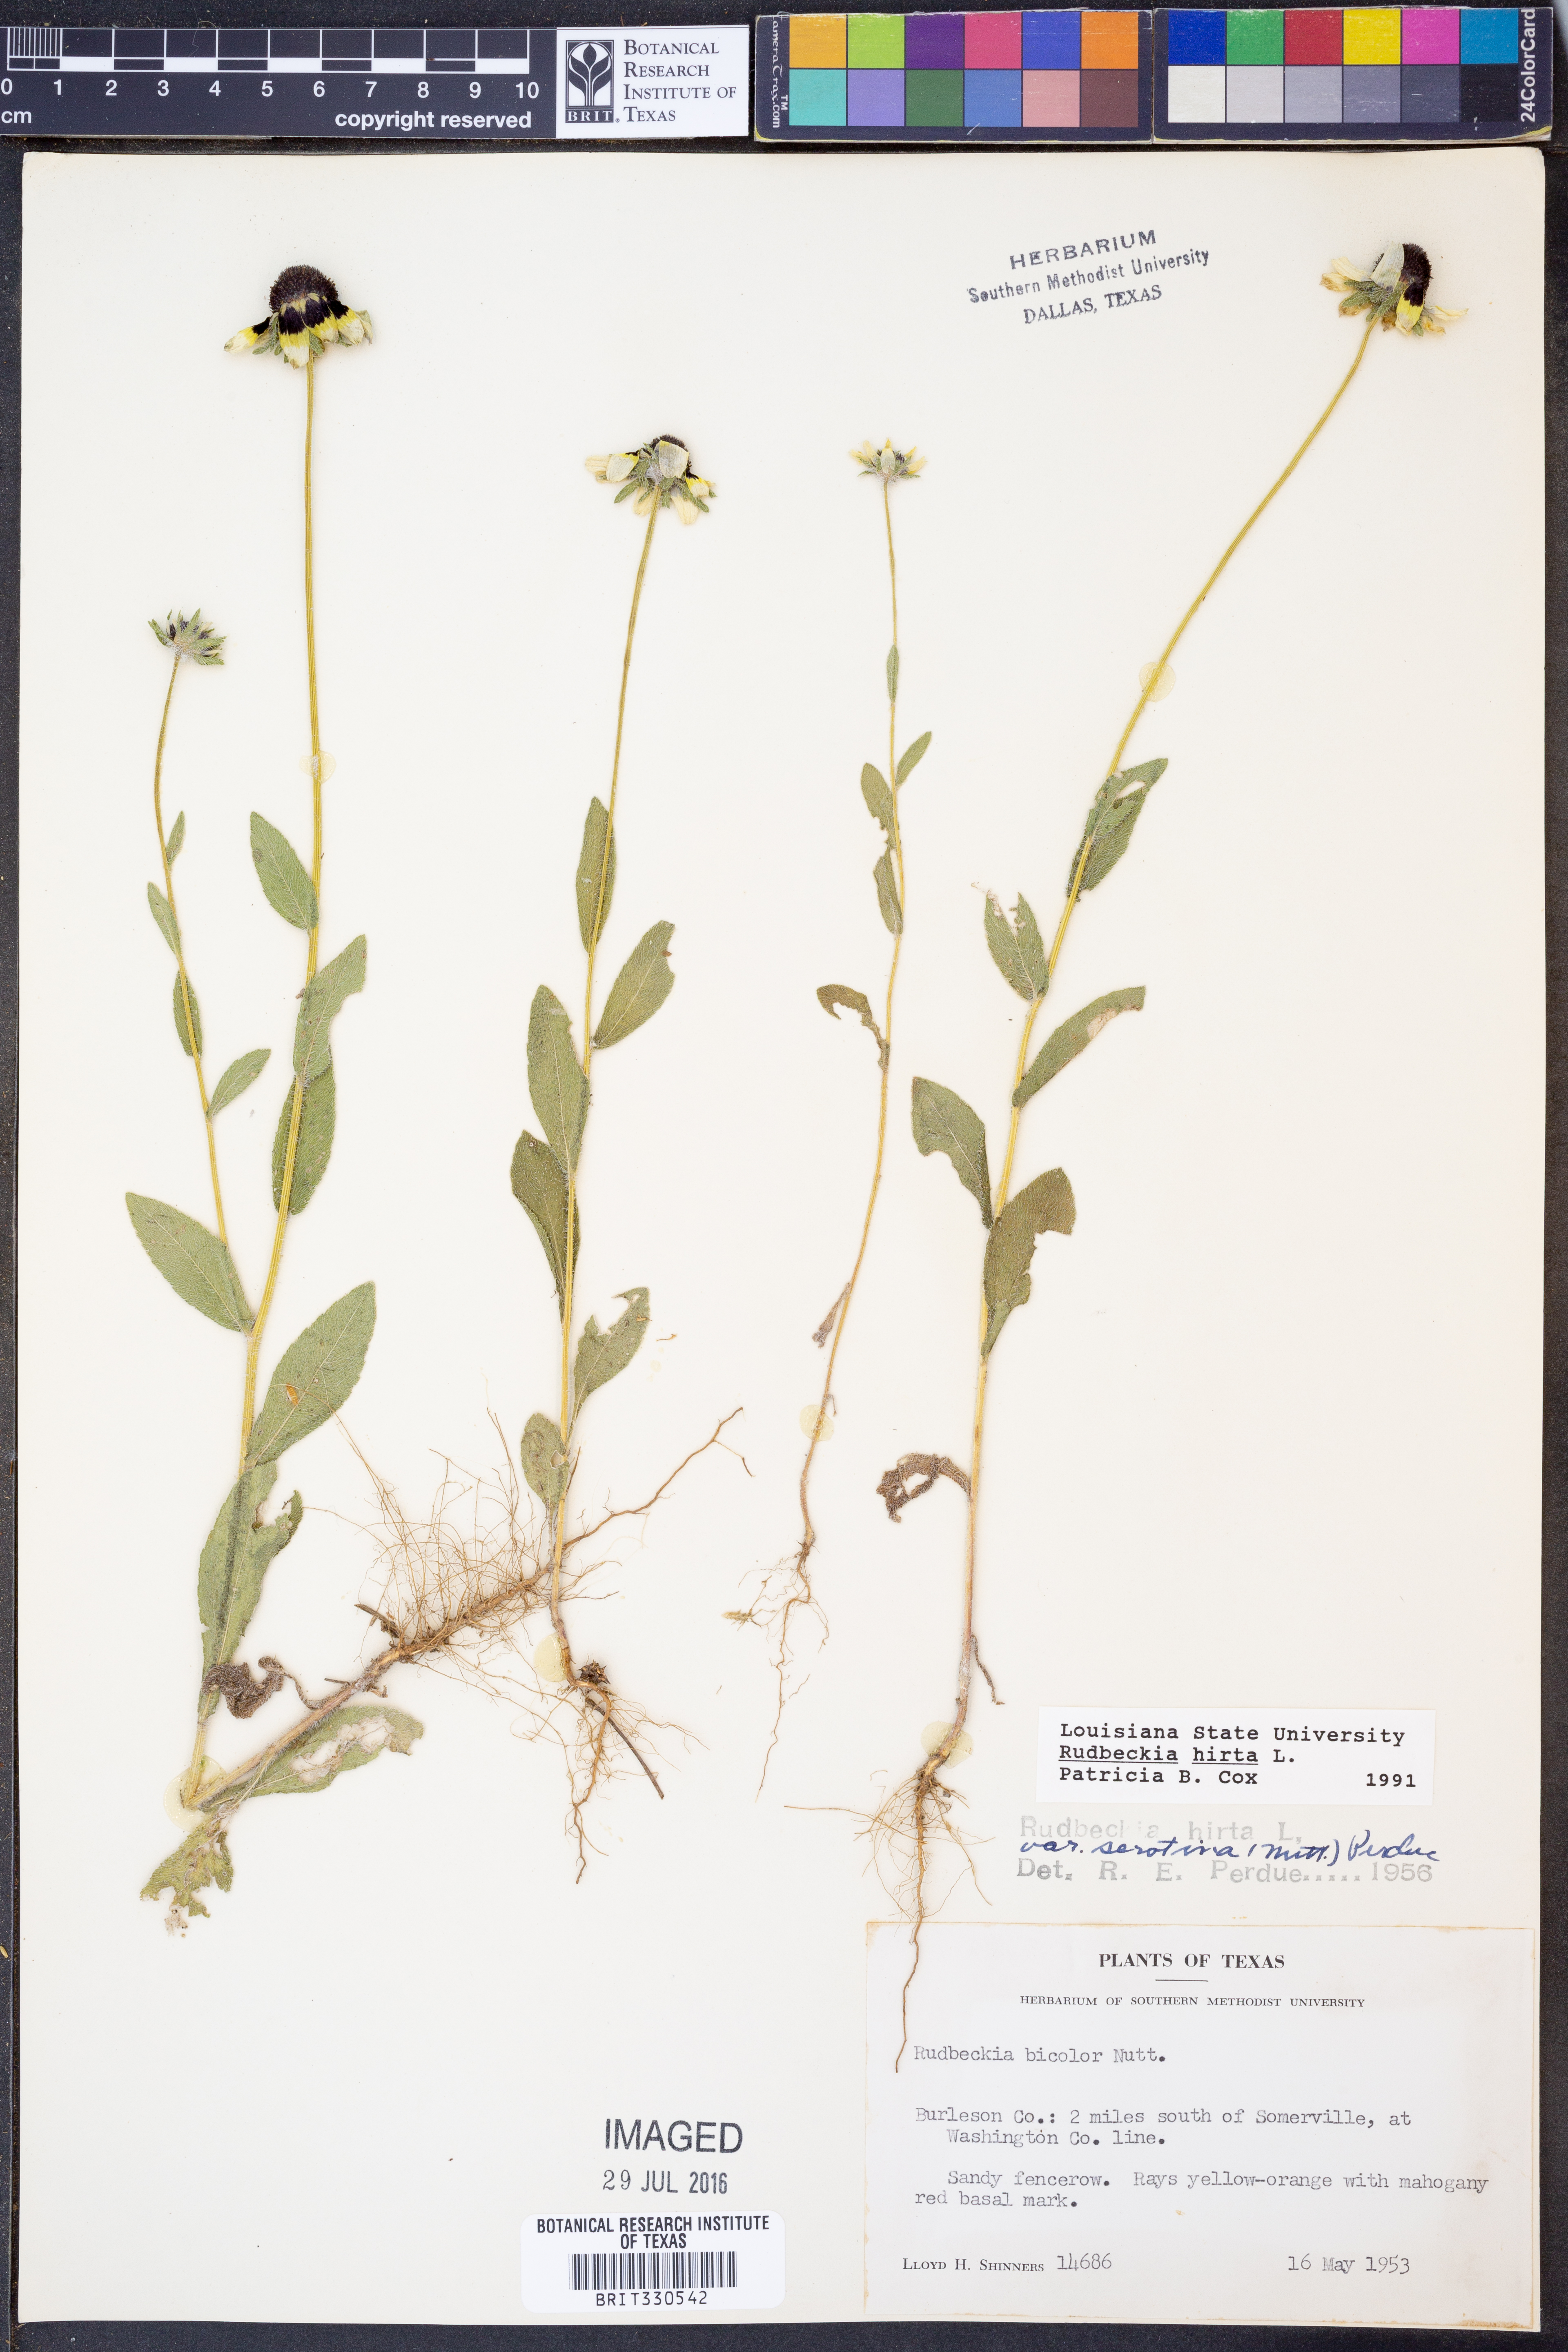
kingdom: Plantae
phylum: Tracheophyta
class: Magnoliopsida
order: Asterales
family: Asteraceae
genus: Rudbeckia
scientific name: Rudbeckia hirta
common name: Black-eyed-susan
